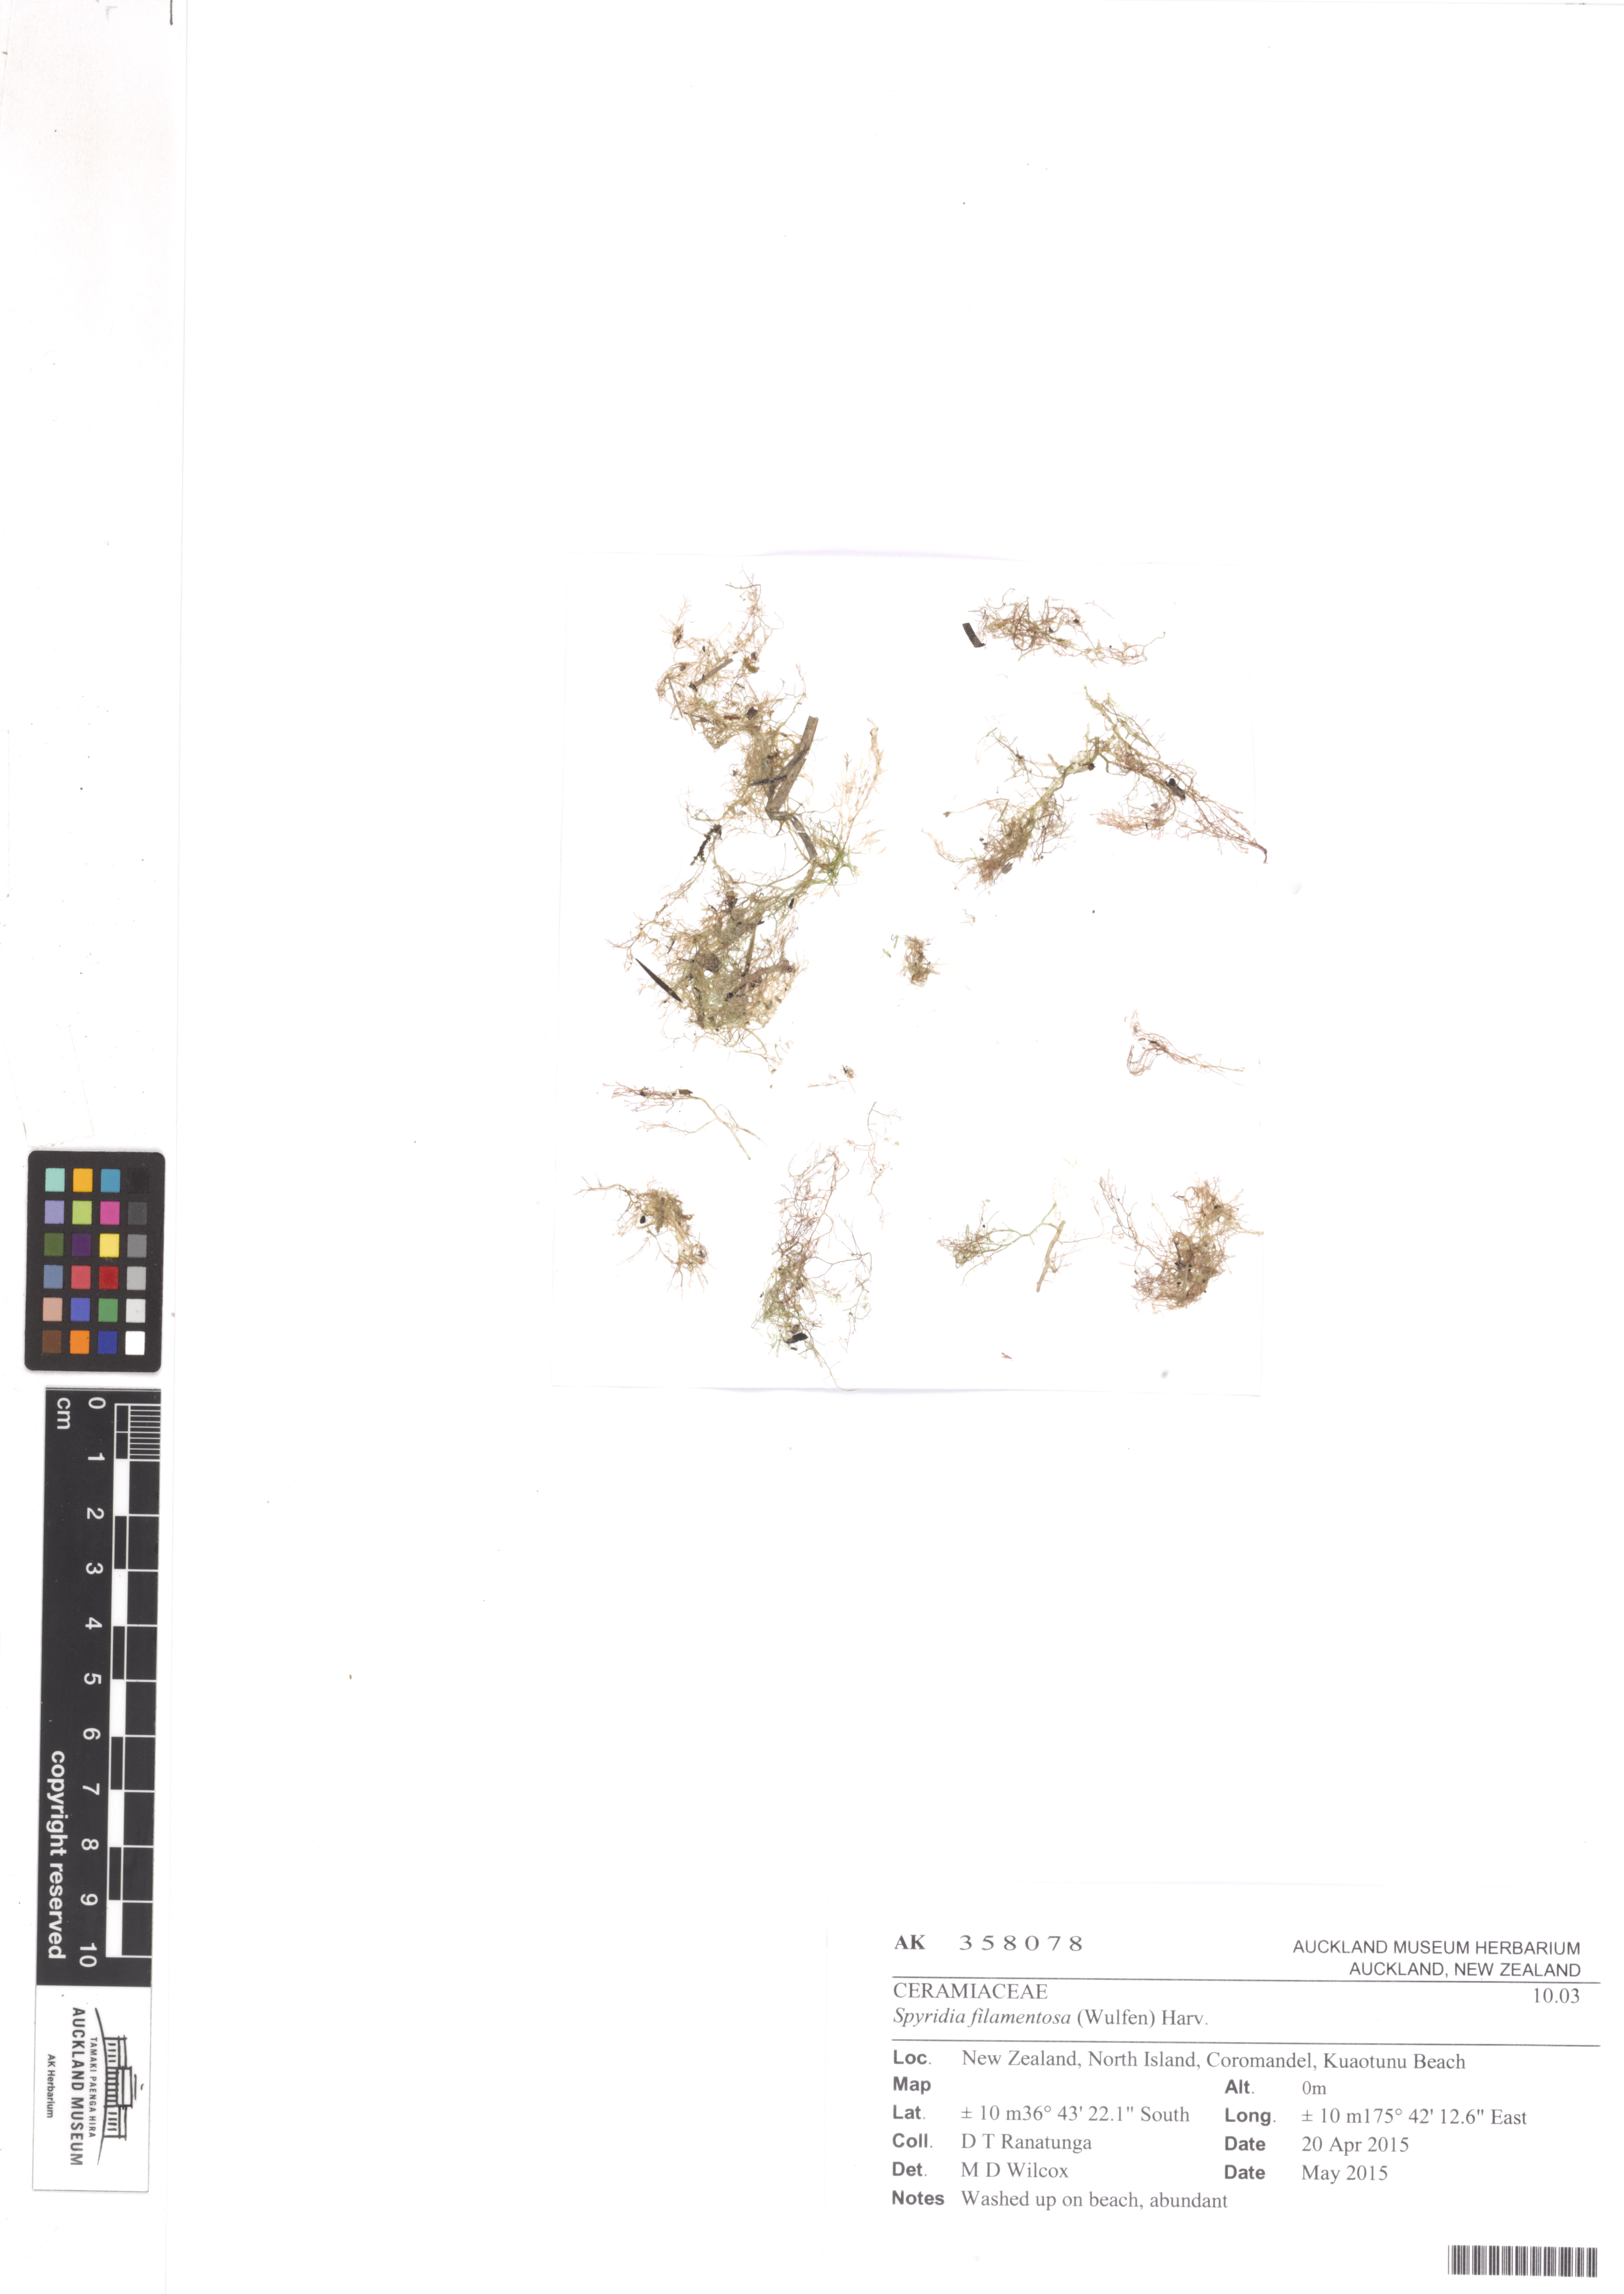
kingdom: Plantae
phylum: Rhodophyta
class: Florideophyceae
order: Ceramiales
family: Spyridiaceae
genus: Spyridia
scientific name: Spyridia filamentosa
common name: Red algae
